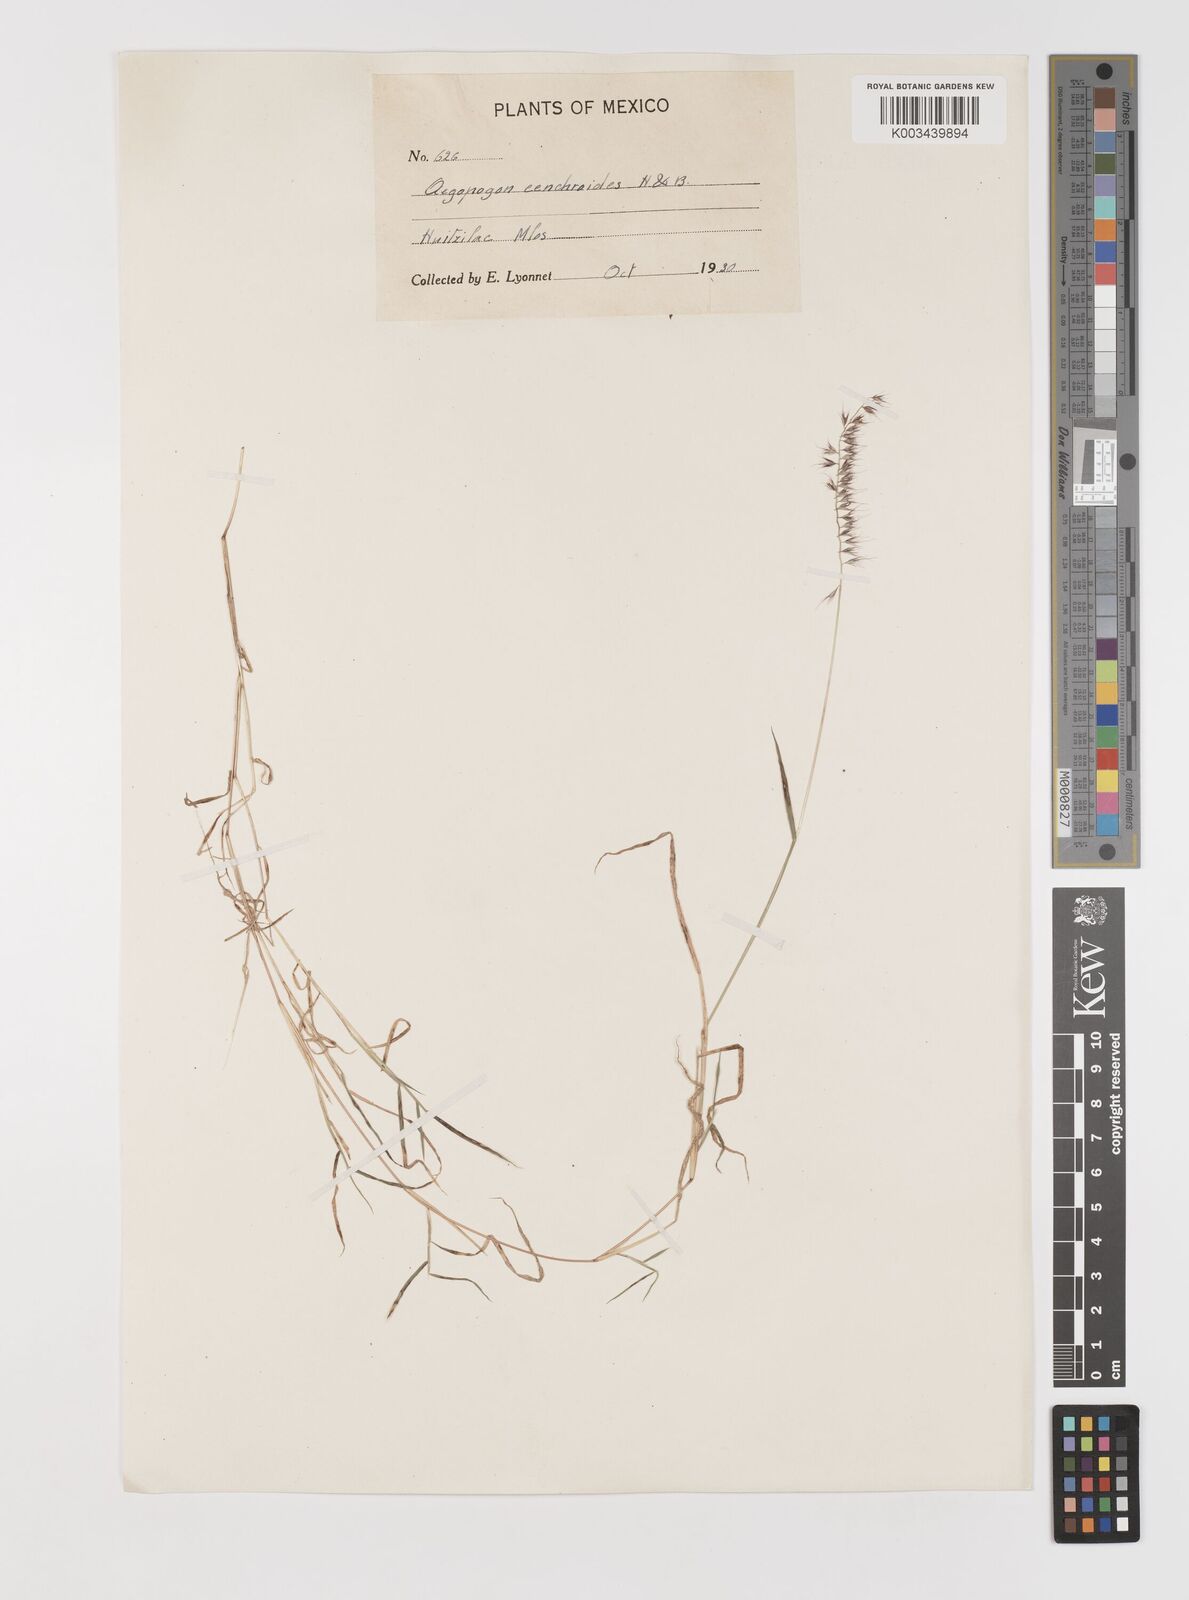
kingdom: Plantae
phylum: Tracheophyta
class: Liliopsida
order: Poales
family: Poaceae
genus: Muhlenbergia
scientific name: Muhlenbergia cenchroides
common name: Relaxgrass
